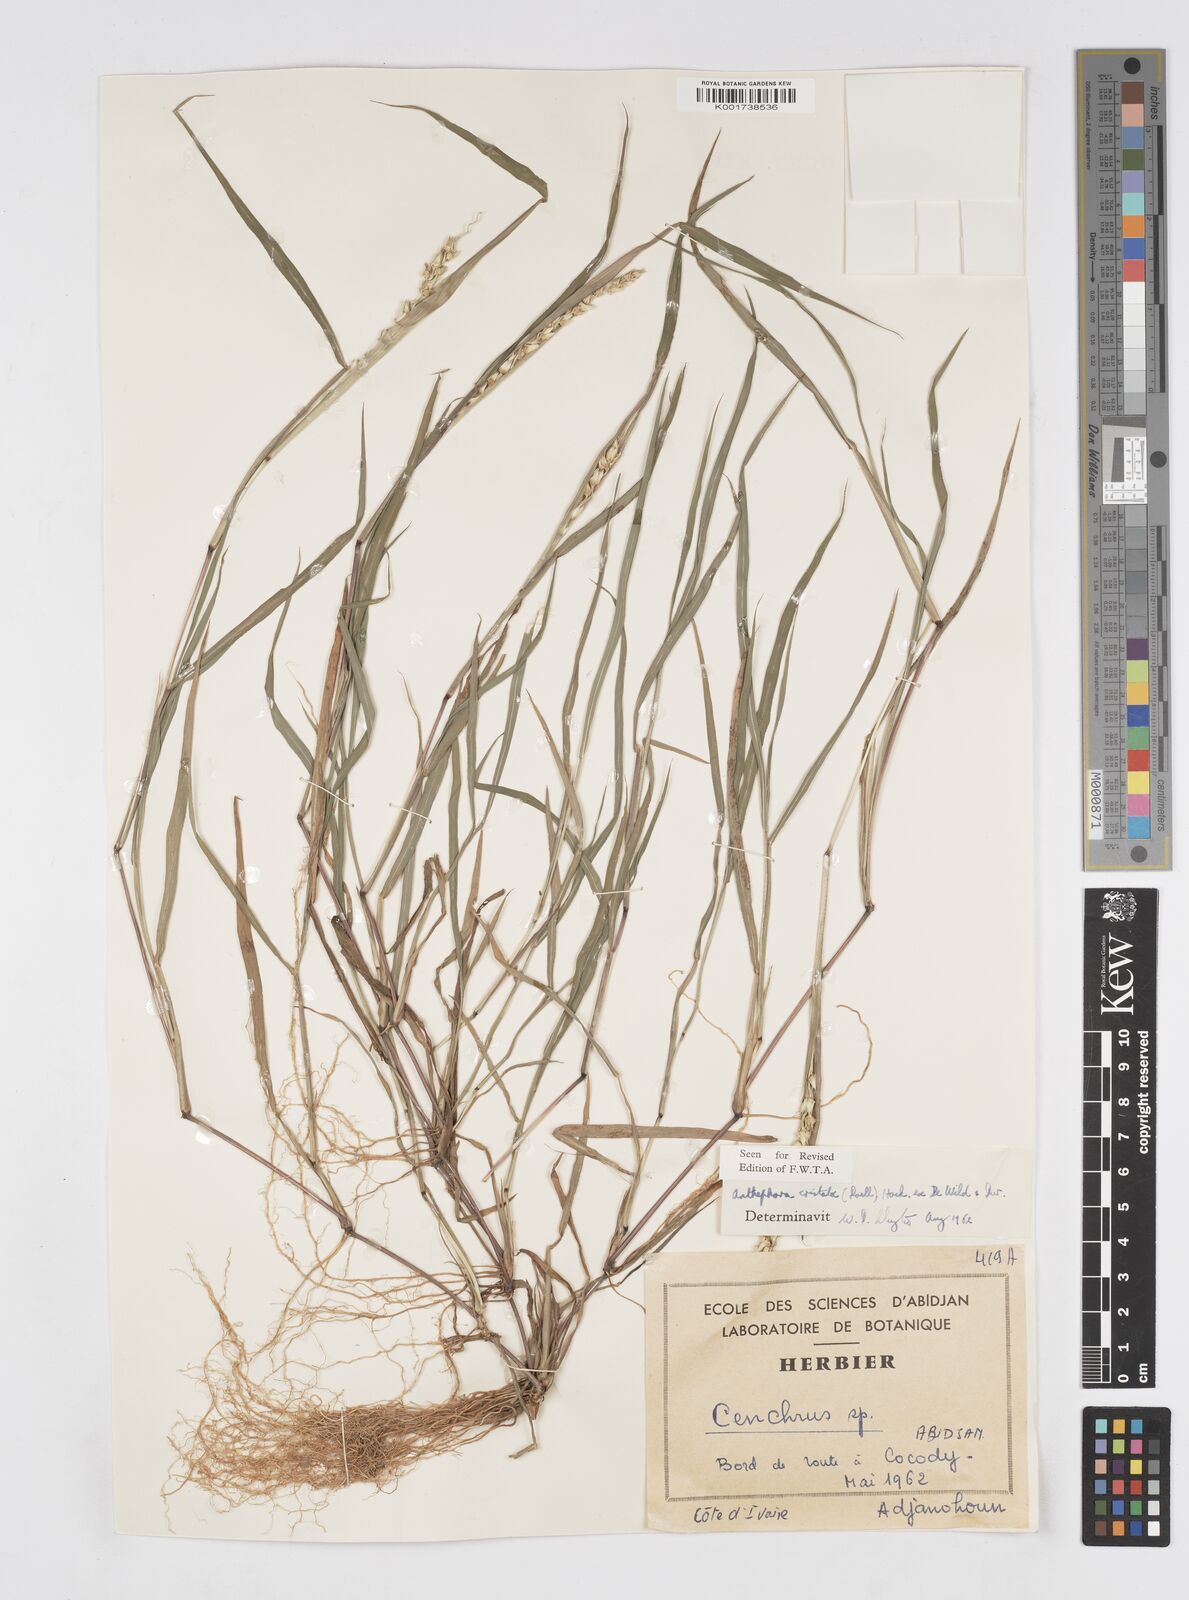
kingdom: Plantae
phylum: Tracheophyta
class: Liliopsida
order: Poales
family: Poaceae
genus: Anthephora
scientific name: Anthephora cristata
